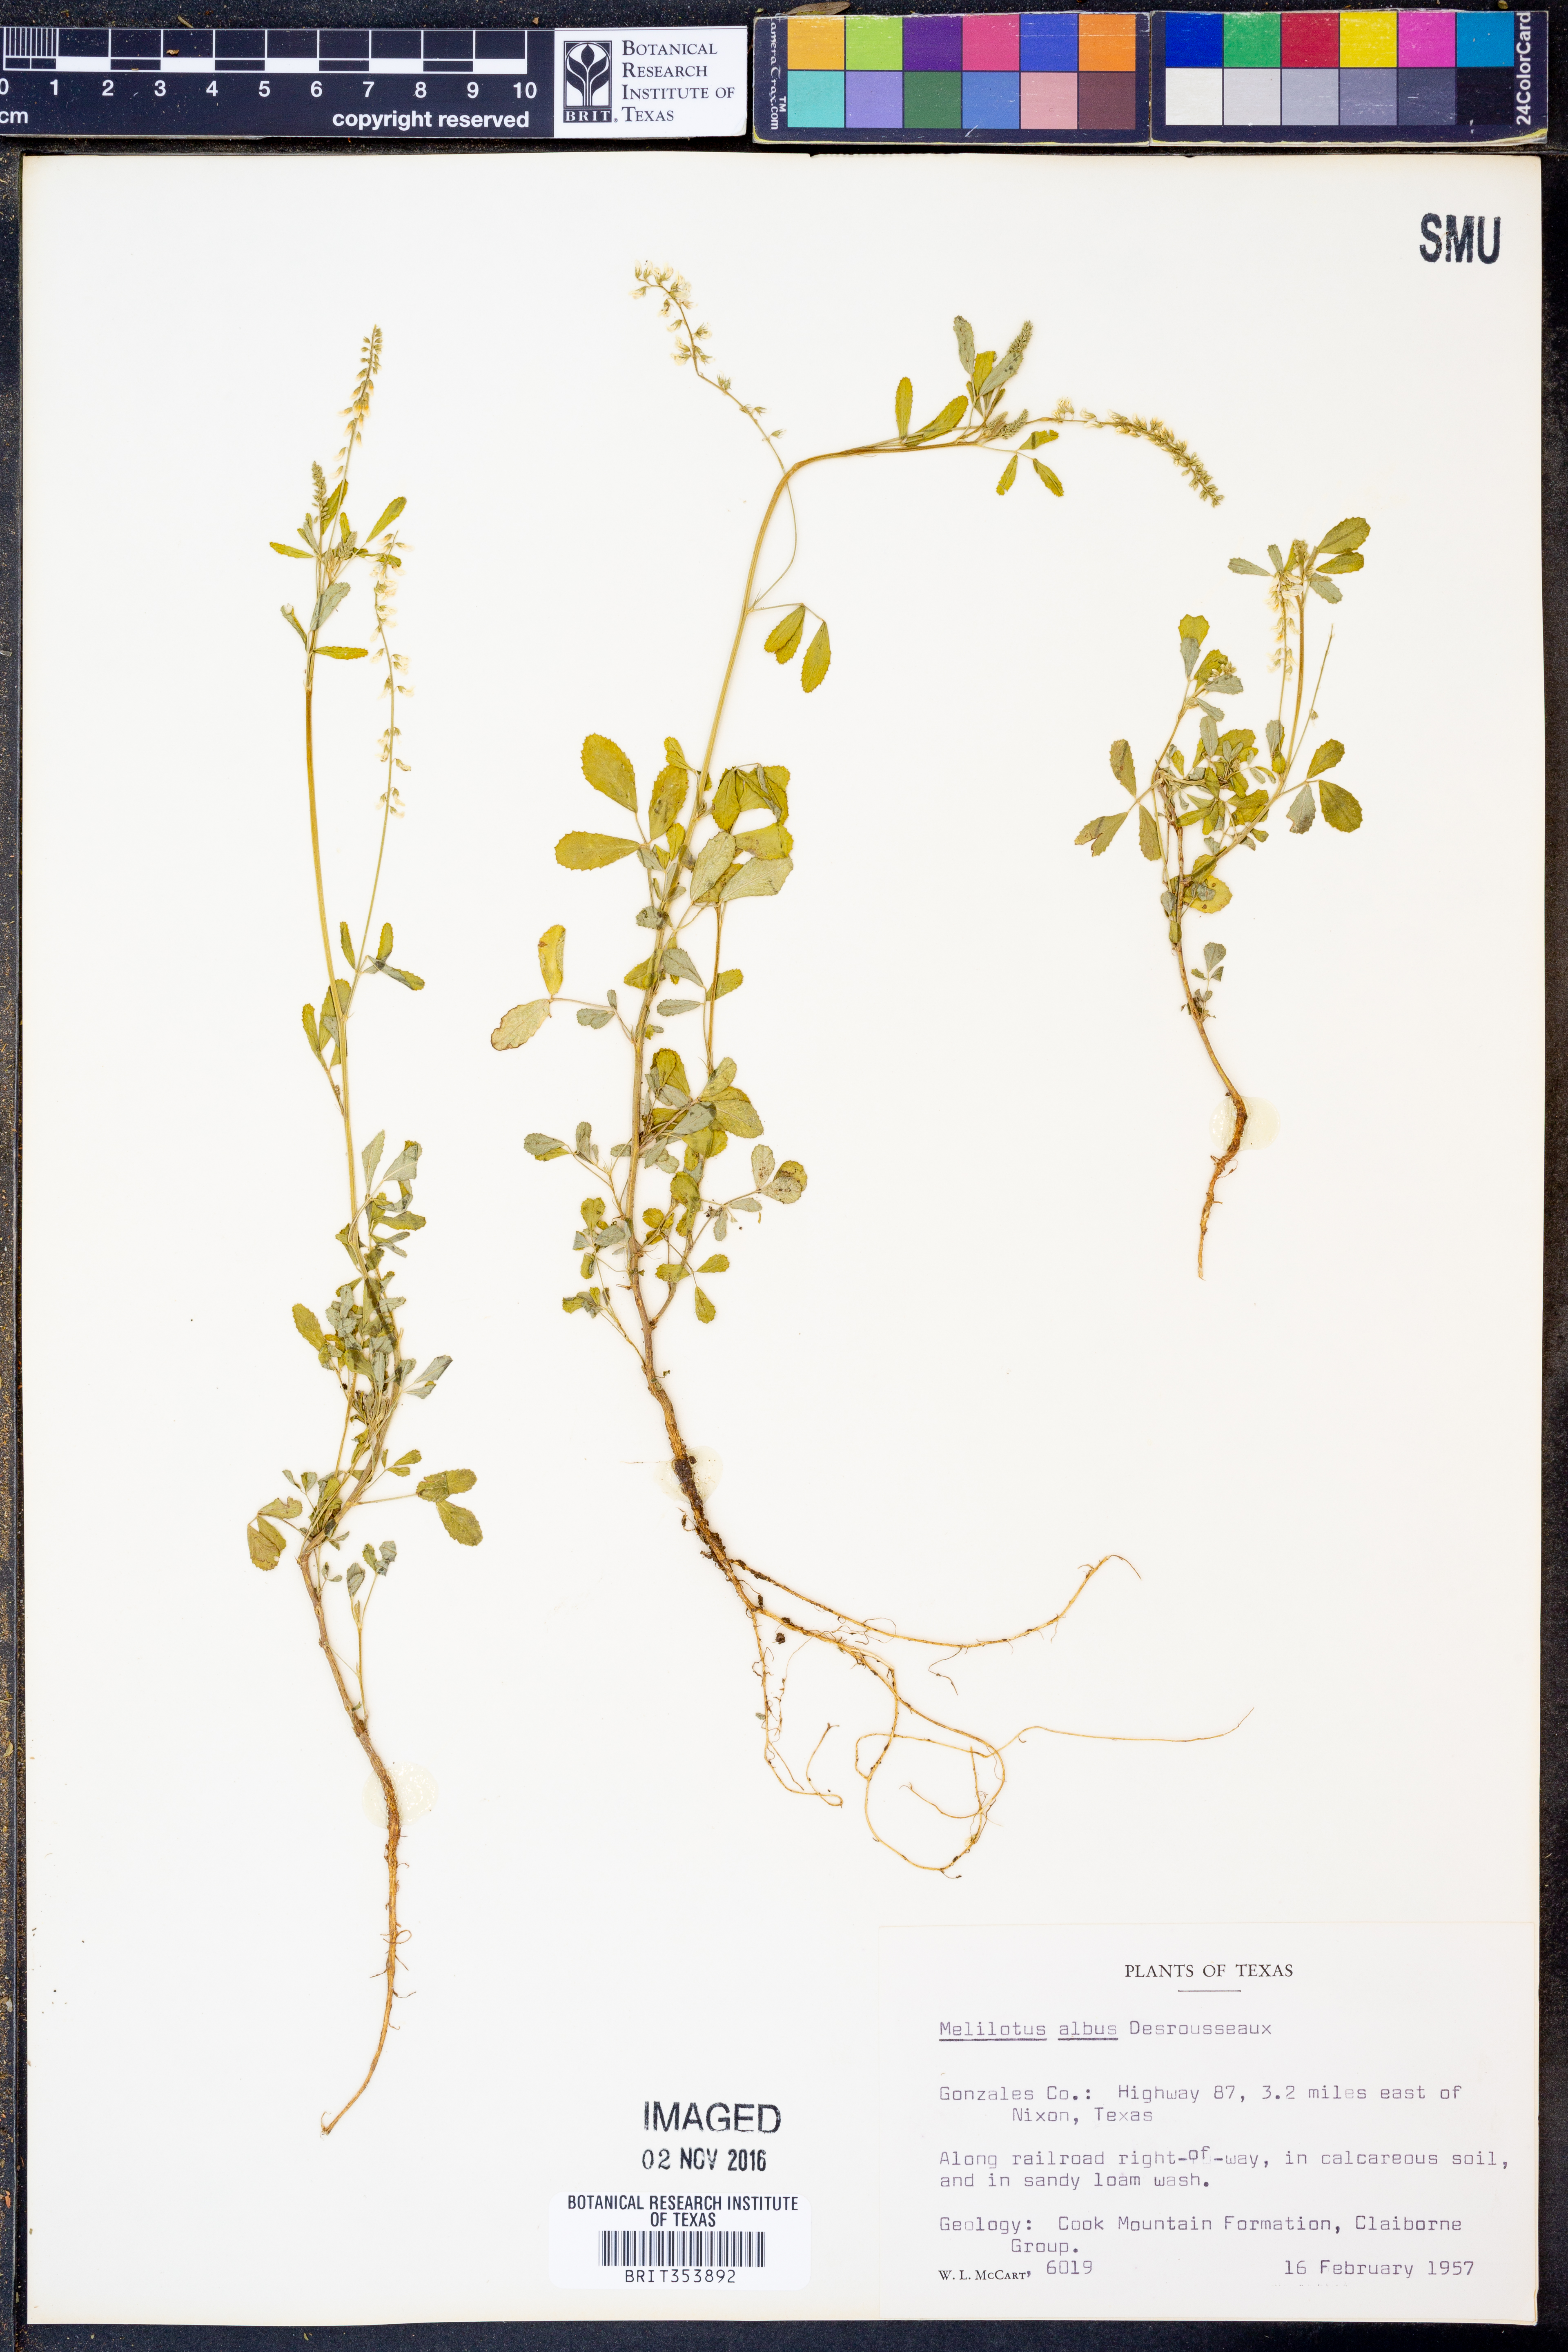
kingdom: Plantae
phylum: Tracheophyta
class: Magnoliopsida
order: Fabales
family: Fabaceae
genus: Melilotus
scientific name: Melilotus albus
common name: White melilot
